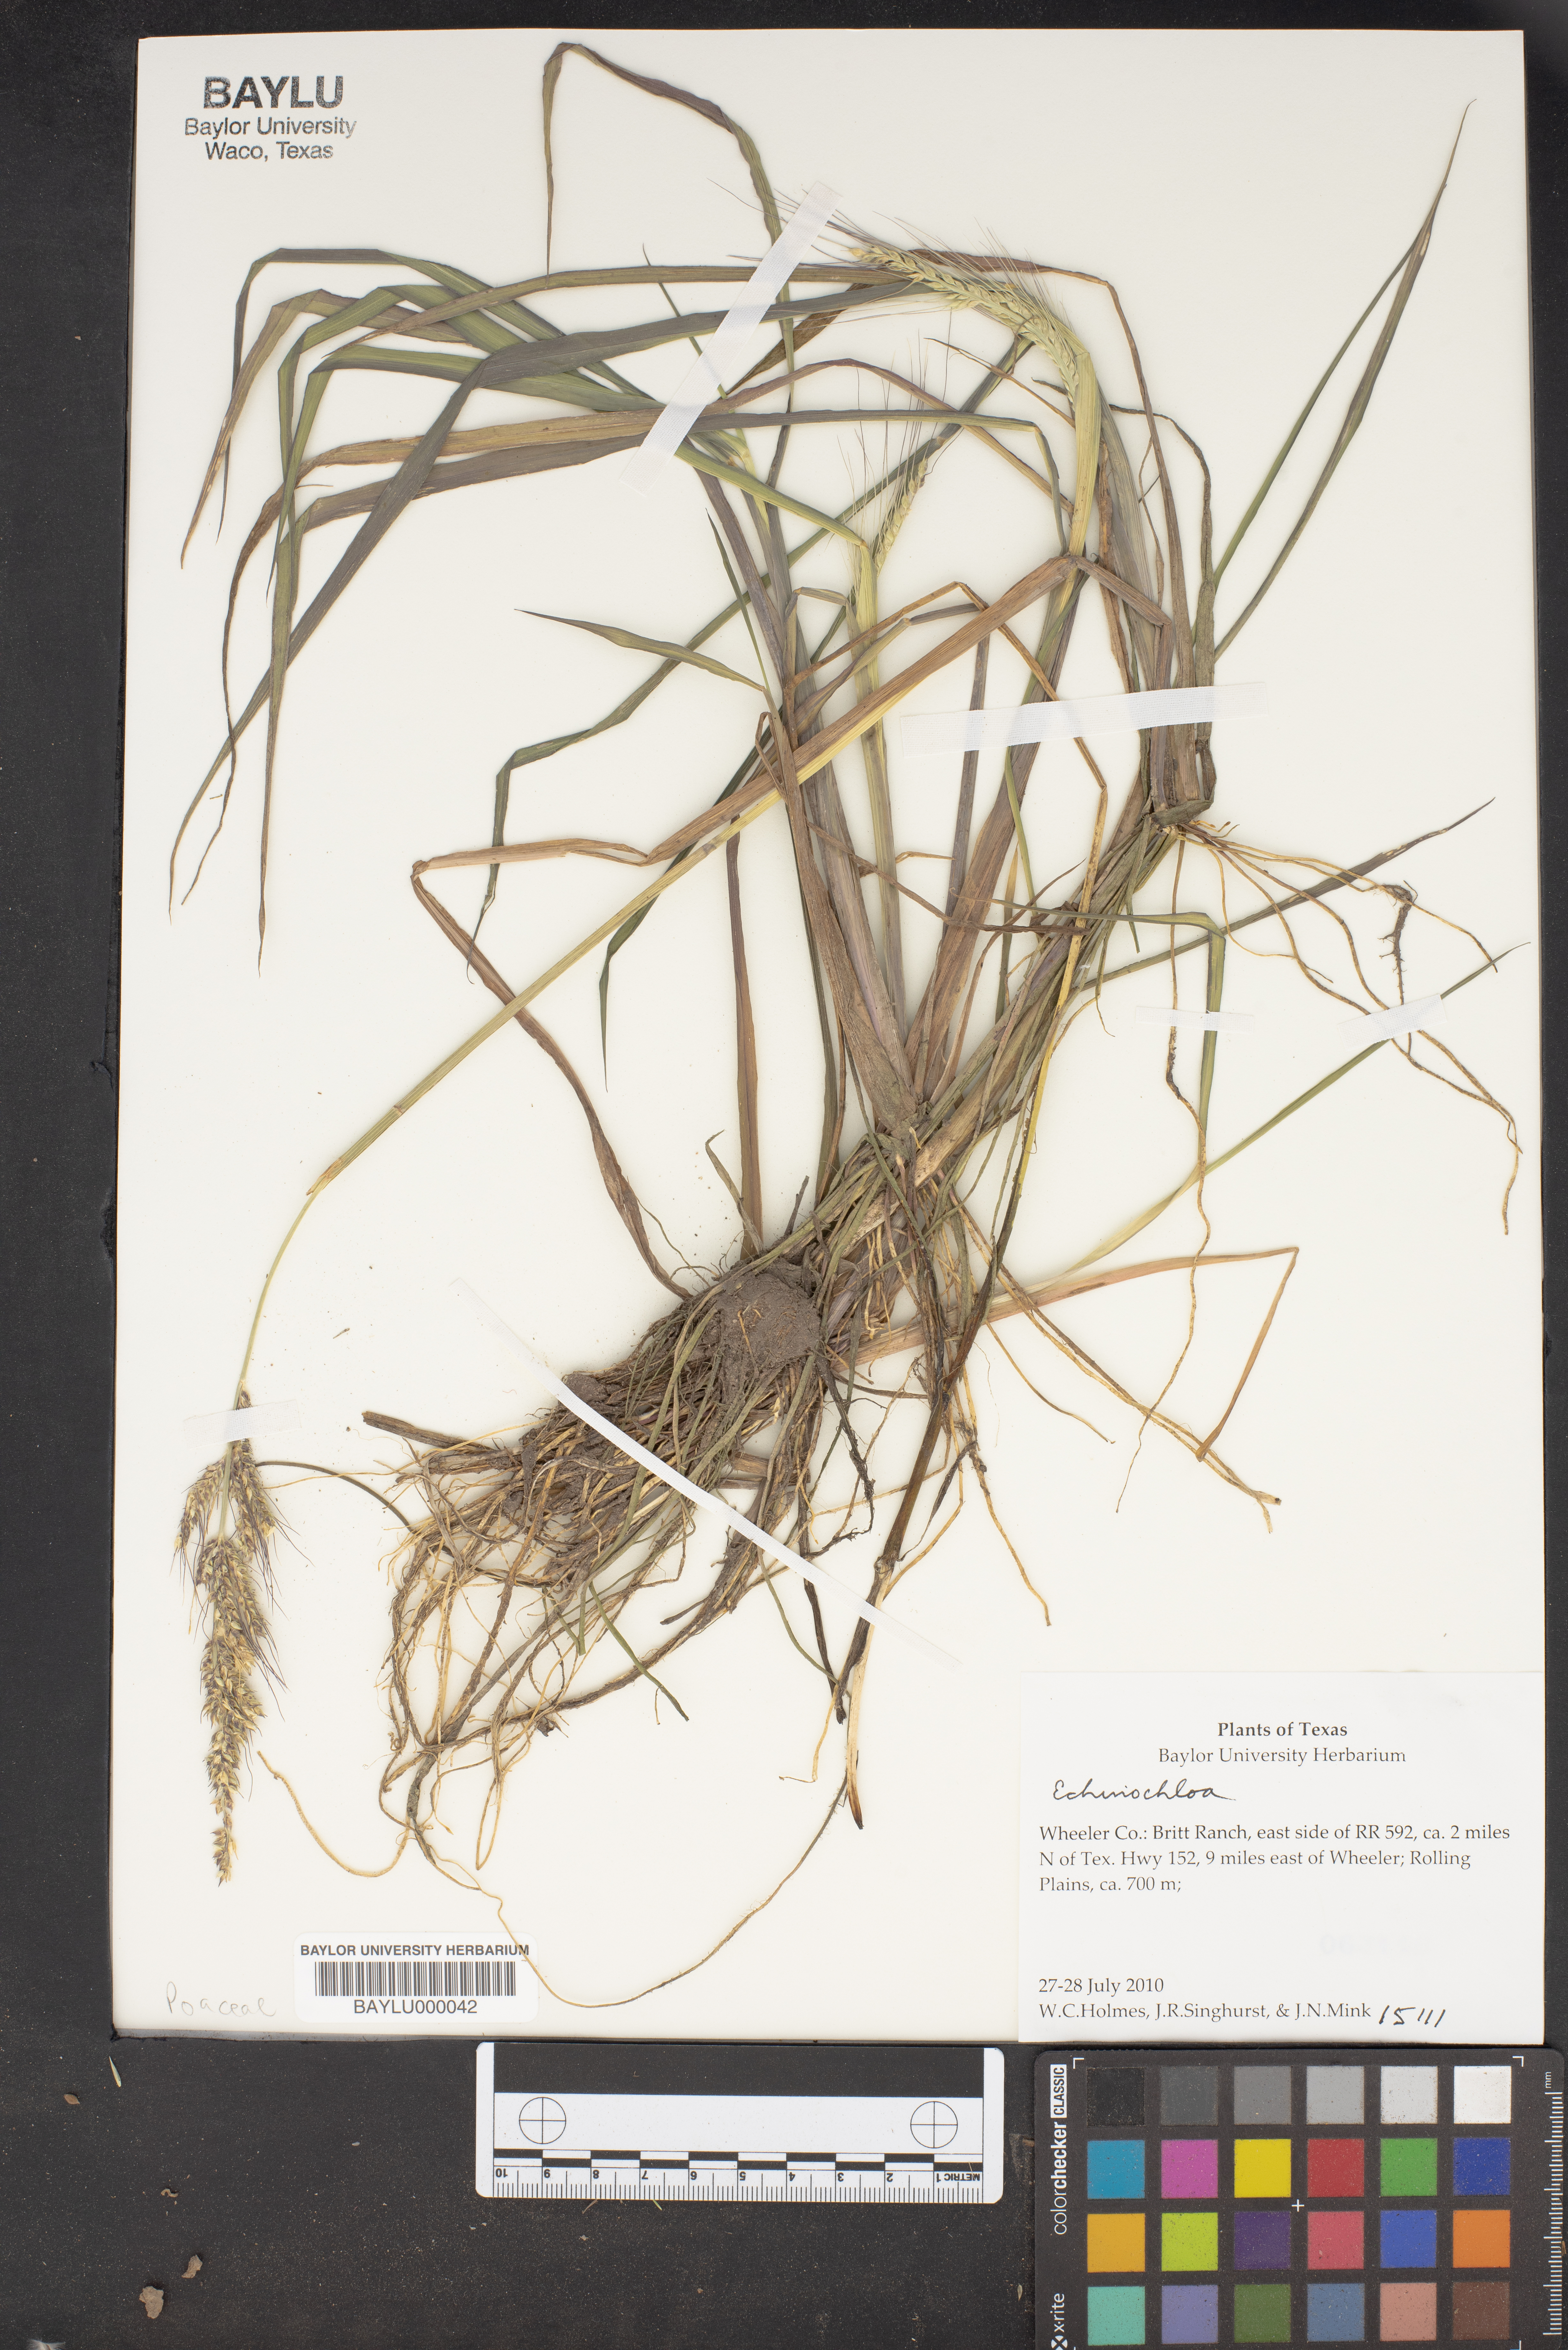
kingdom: Plantae
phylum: Tracheophyta
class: Liliopsida
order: Poales
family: Poaceae
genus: Echinochloa
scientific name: Echinochloa
